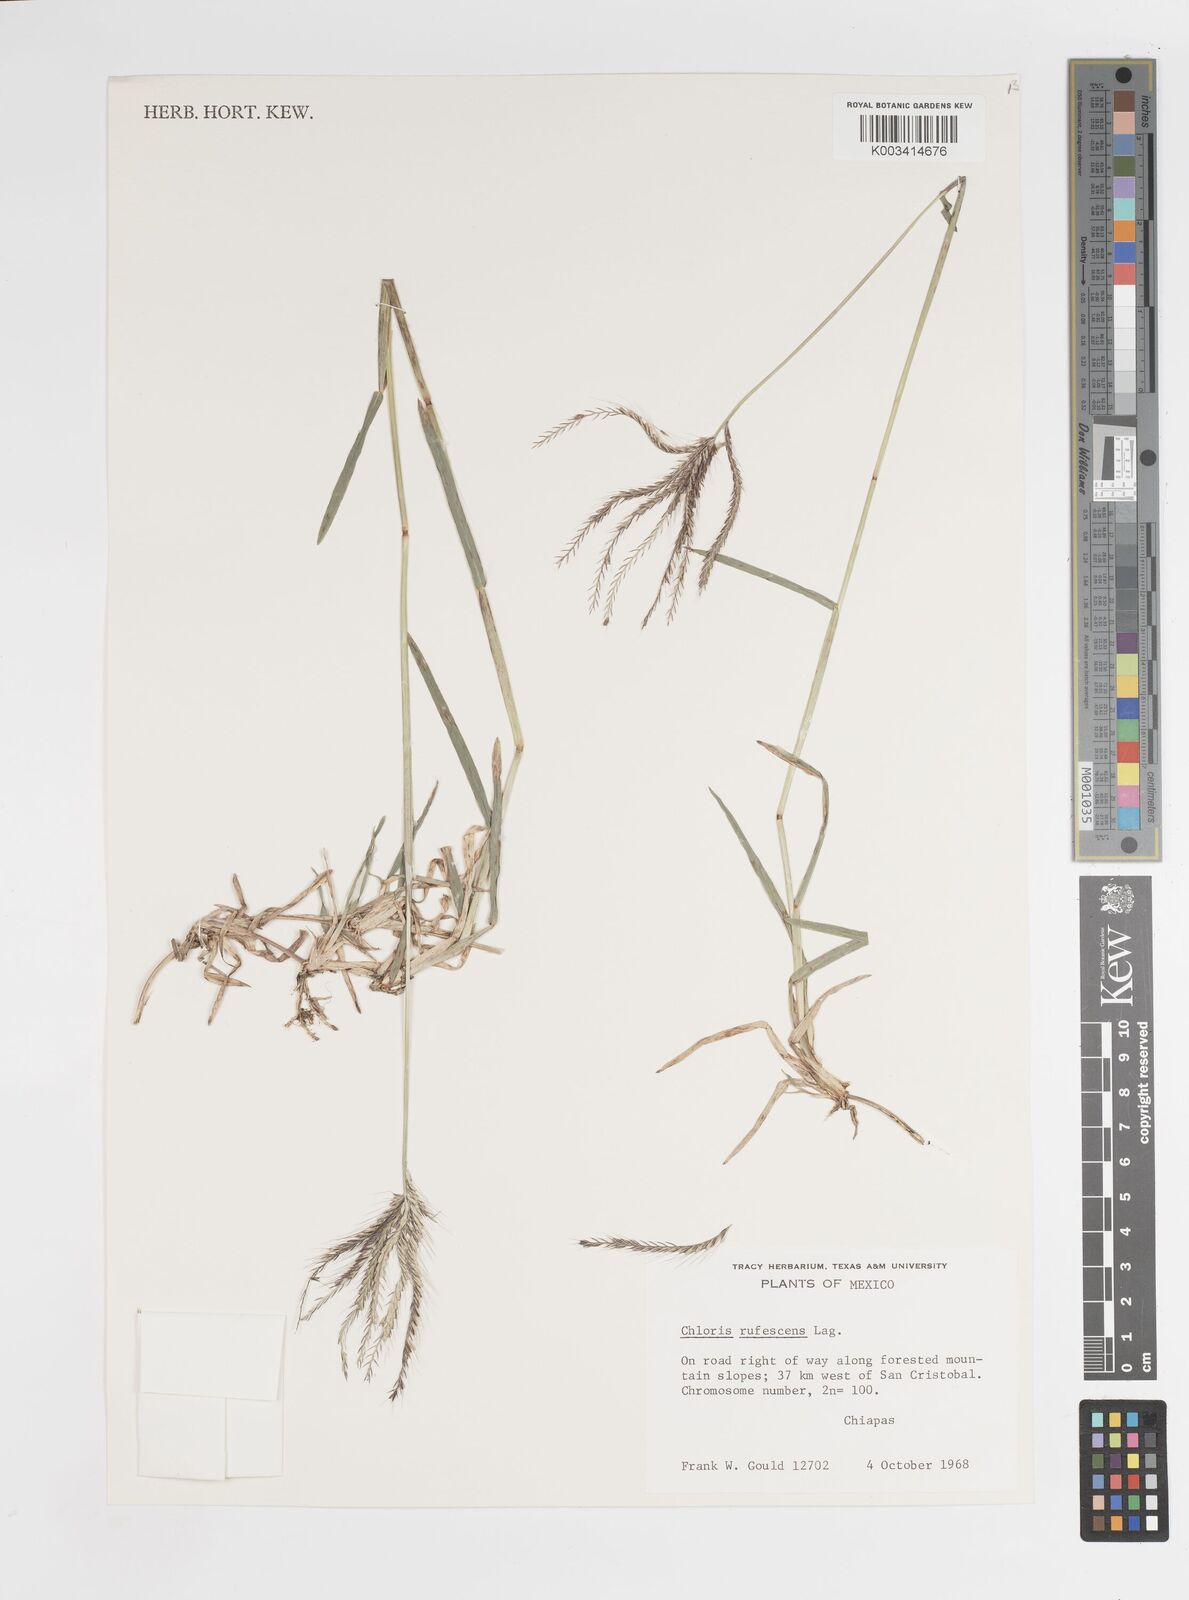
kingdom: Plantae
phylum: Tracheophyta
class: Liliopsida
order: Poales
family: Poaceae
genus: Chloris
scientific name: Chloris rufescens
